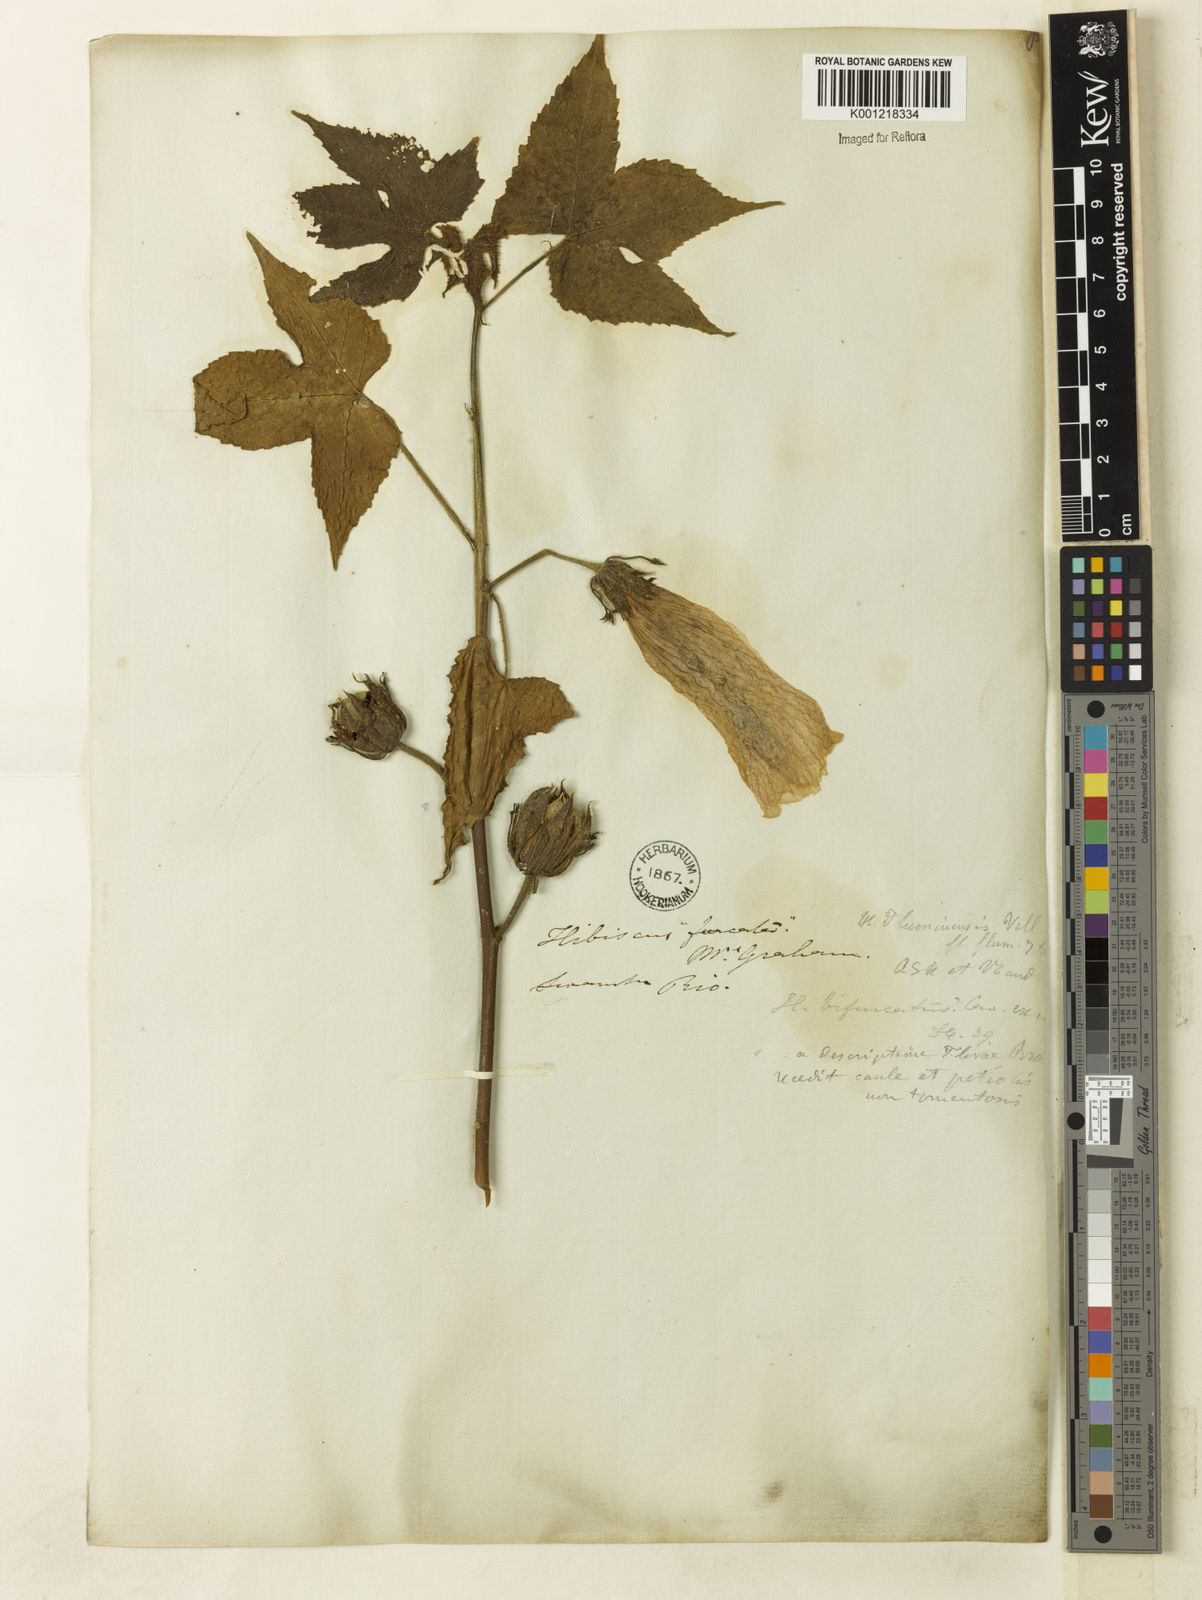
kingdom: Plantae
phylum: Tracheophyta
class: Magnoliopsida
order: Malvales
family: Malvaceae
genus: Hibiscus
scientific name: Hibiscus bifurcatus
